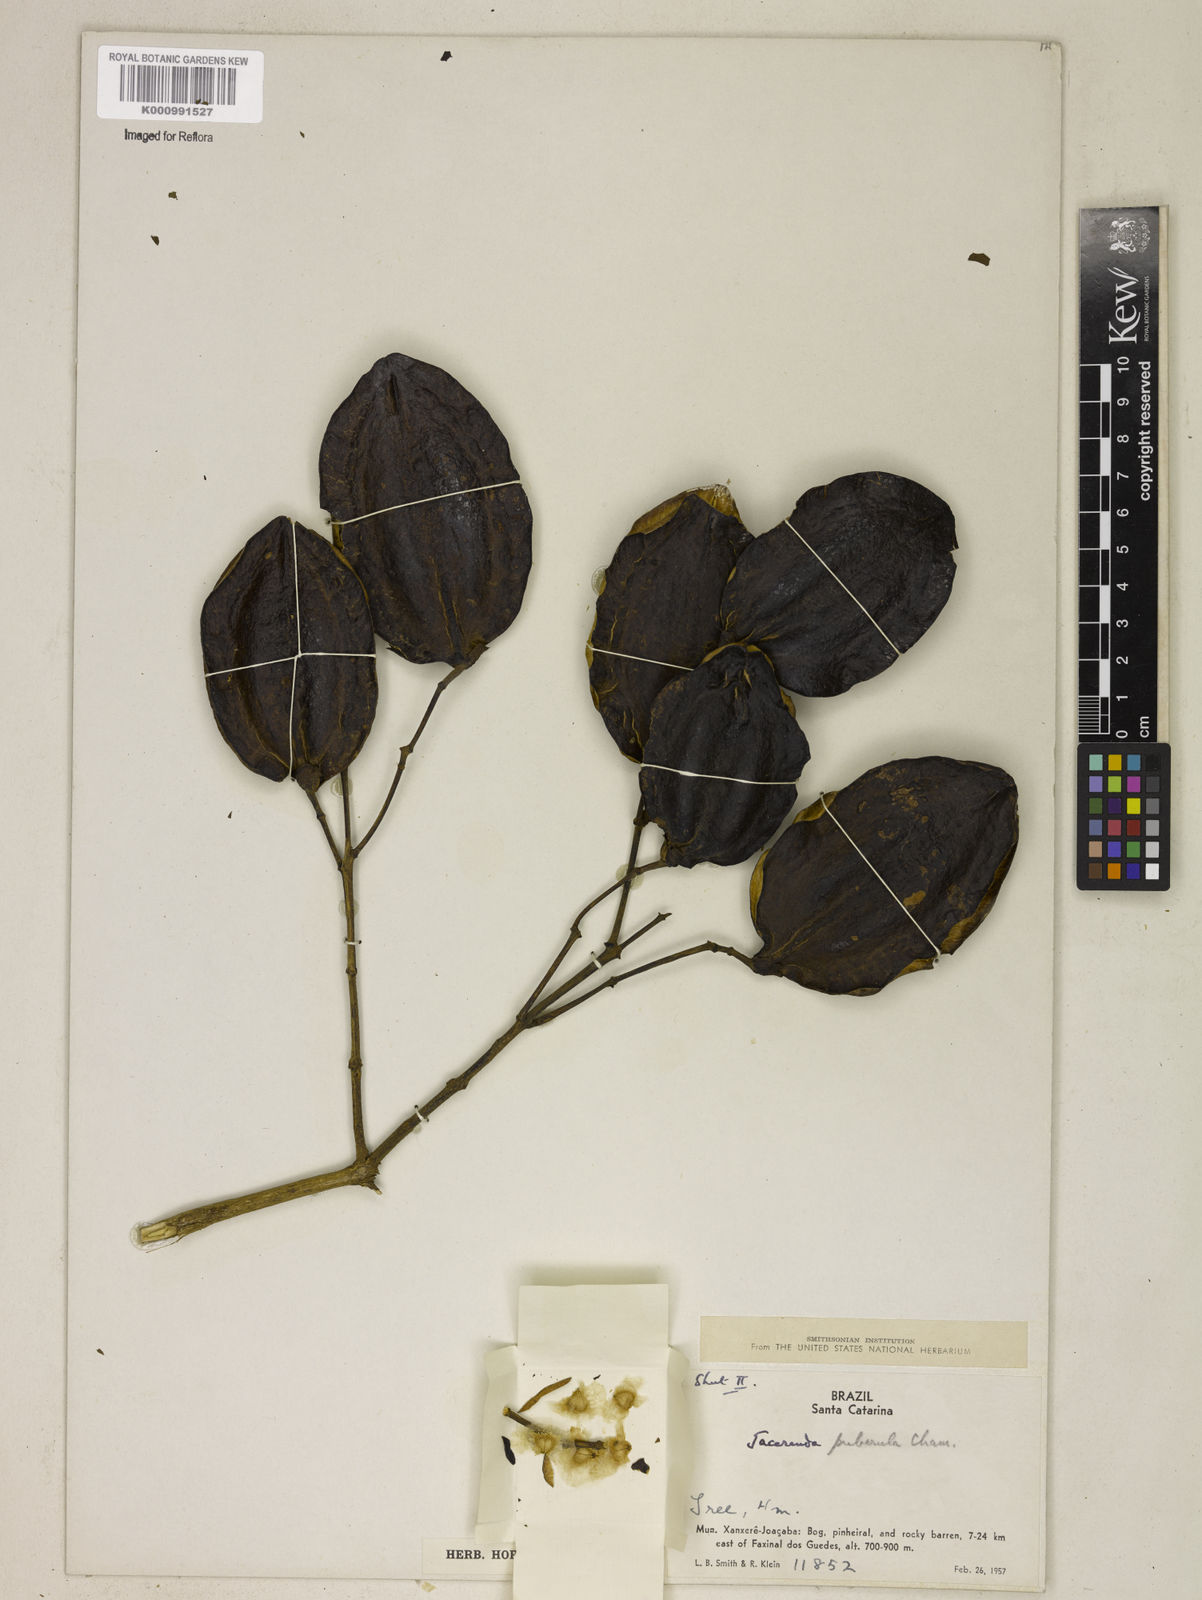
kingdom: Plantae
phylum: Tracheophyta
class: Magnoliopsida
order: Lamiales
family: Bignoniaceae
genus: Jacaranda
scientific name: Jacaranda puberula
